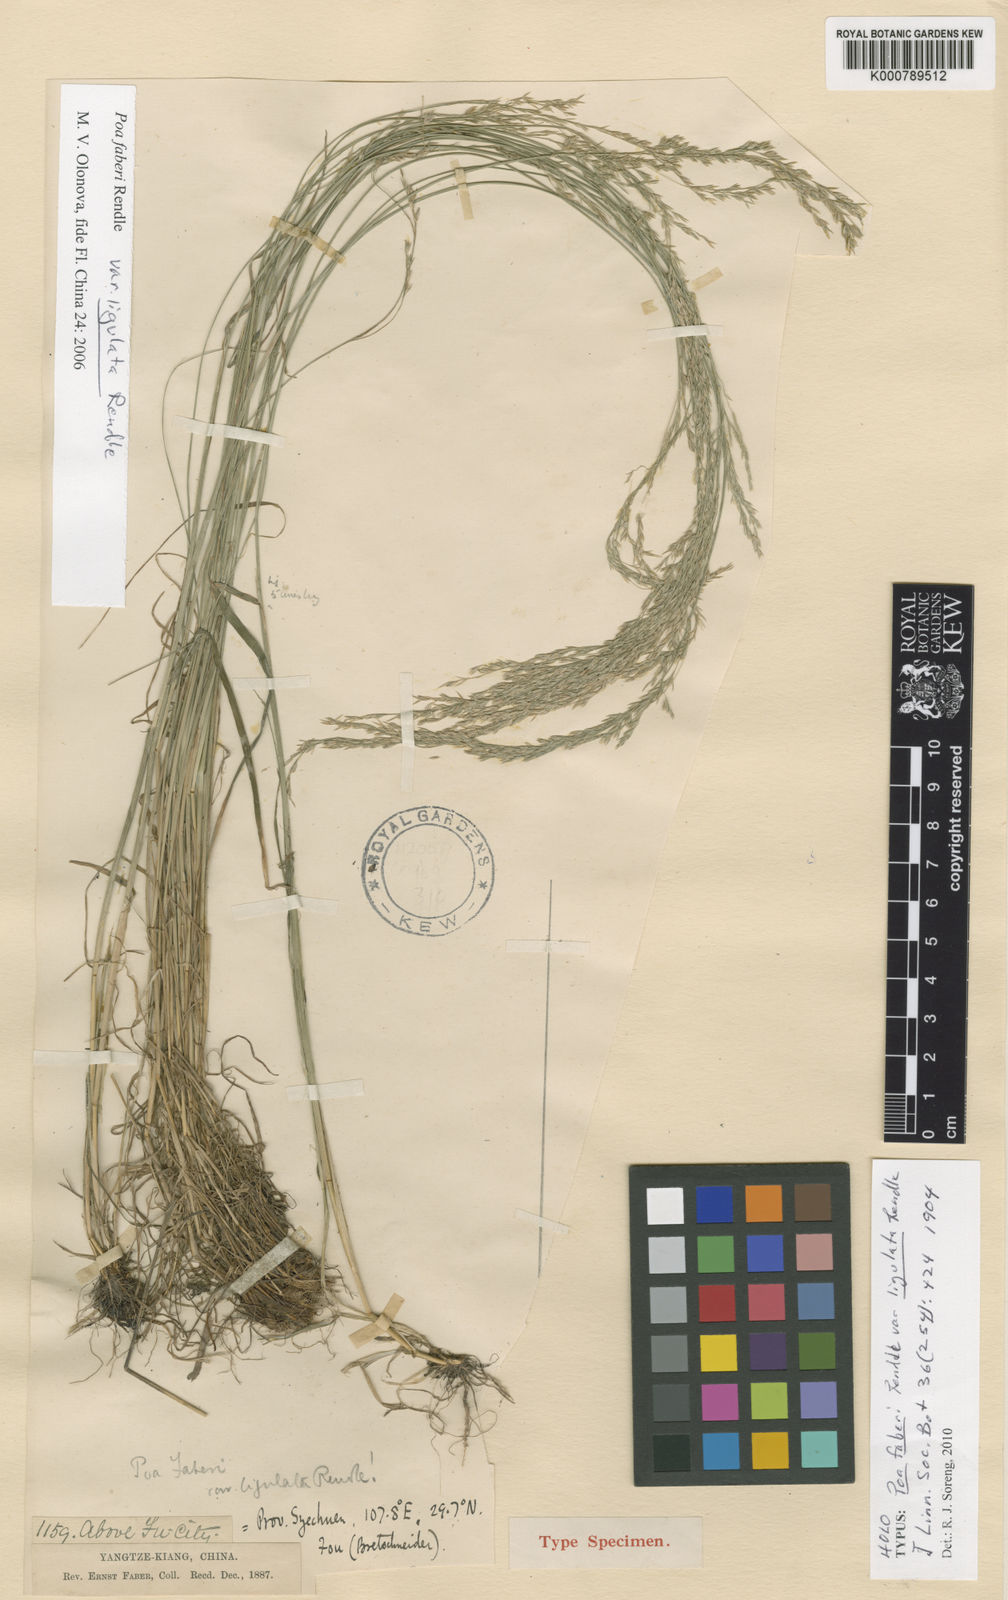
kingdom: Plantae
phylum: Tracheophyta
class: Liliopsida
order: Poales
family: Poaceae
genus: Poa
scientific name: Poa faberi
